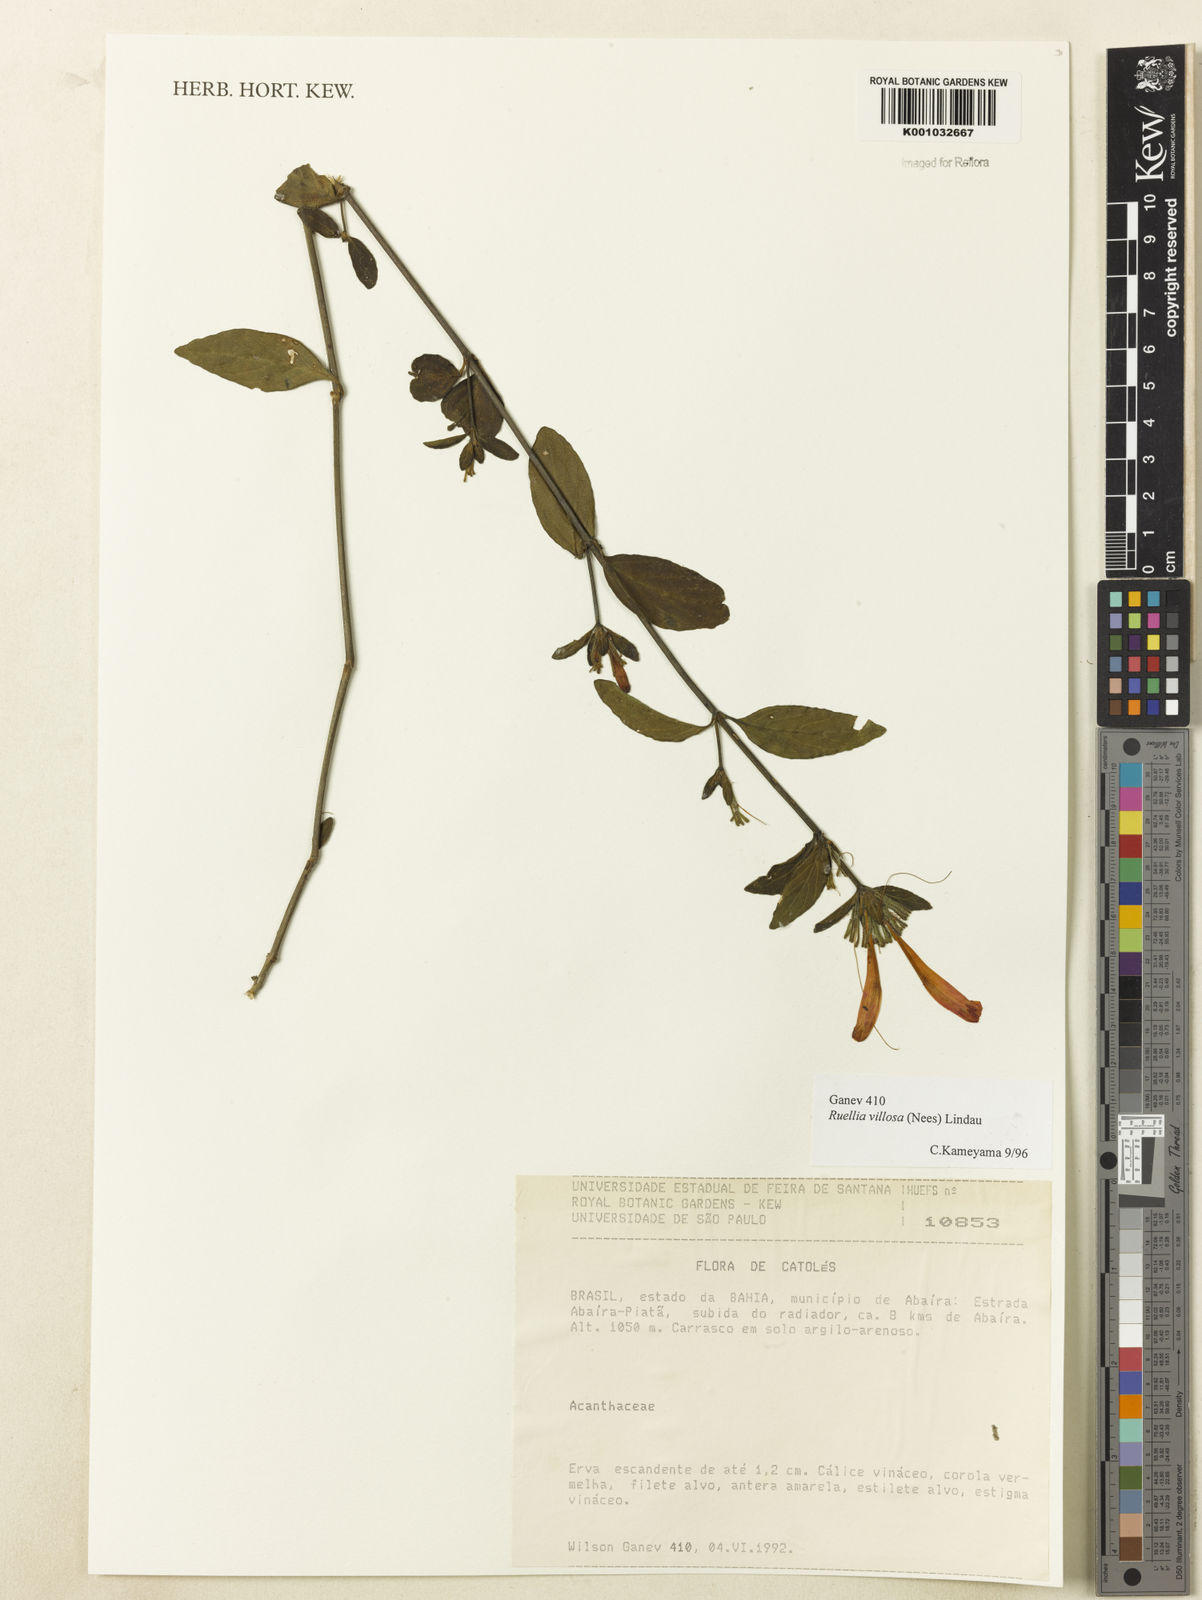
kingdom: Plantae
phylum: Tracheophyta
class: Magnoliopsida
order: Lamiales
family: Acanthaceae
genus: Ruellia
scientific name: Ruellia villosa
